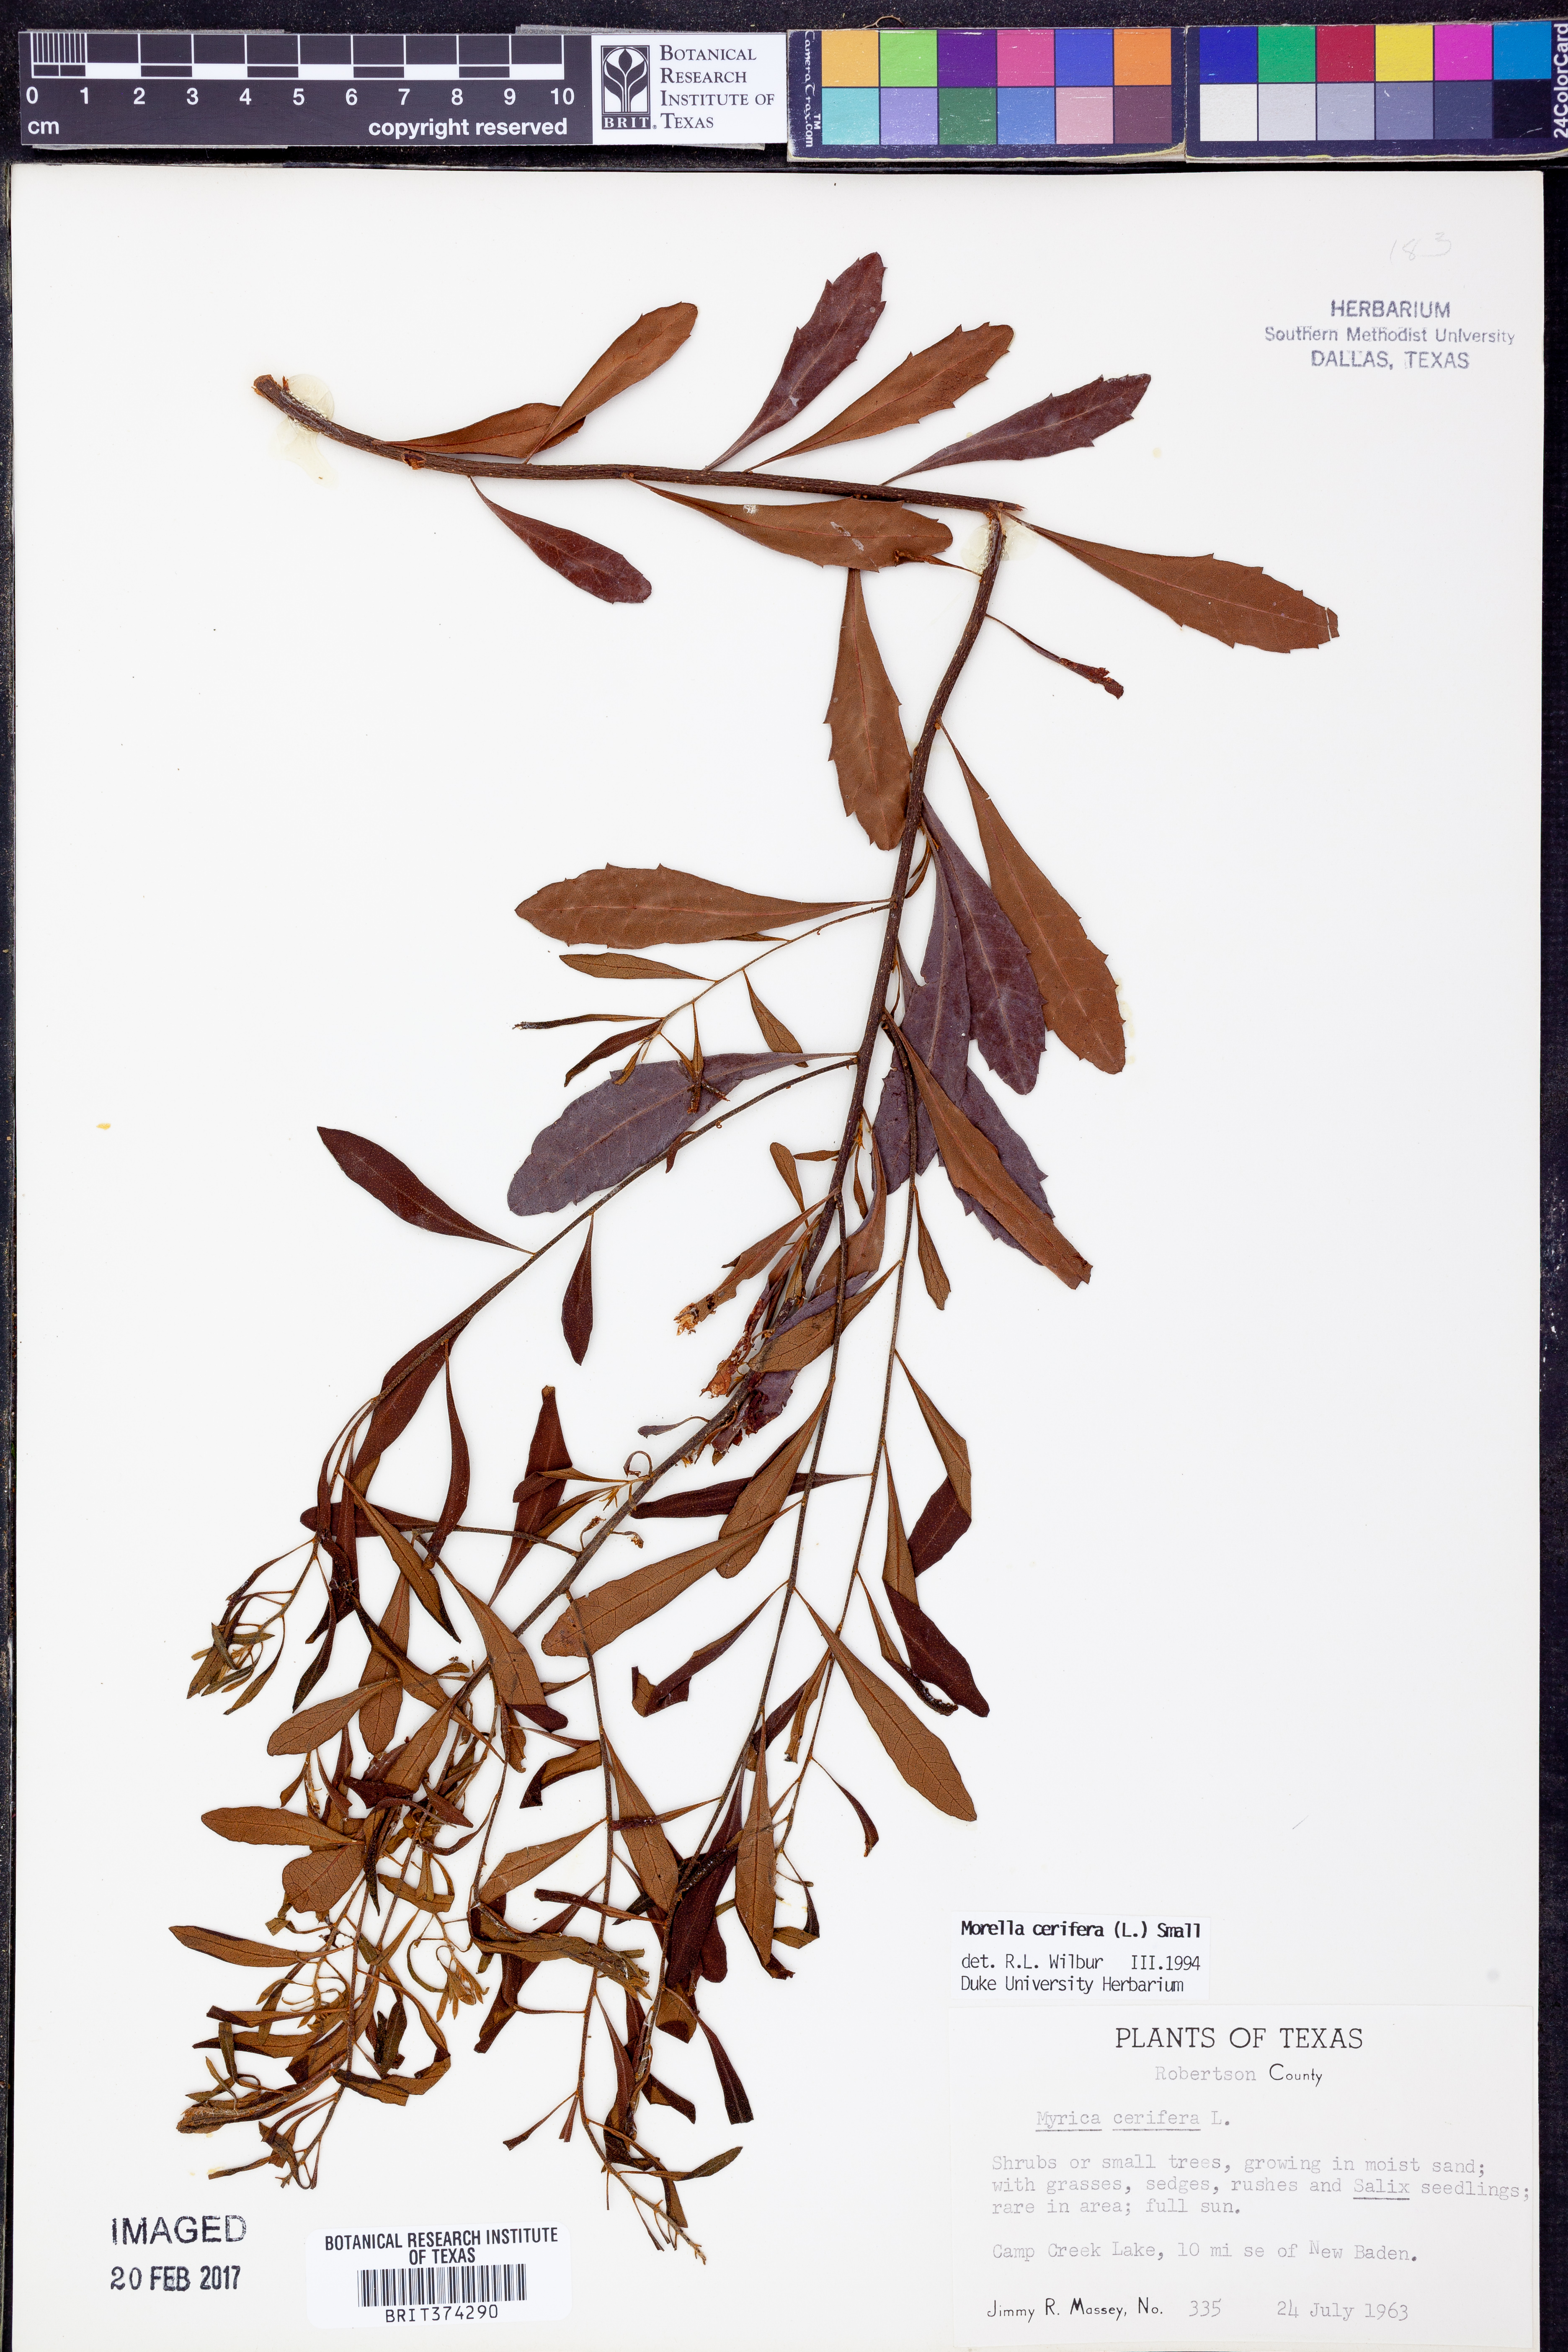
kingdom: Plantae
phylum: Tracheophyta
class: Magnoliopsida
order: Fagales
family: Myricaceae
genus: Morella
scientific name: Morella cerifera
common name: Wax myrtle
